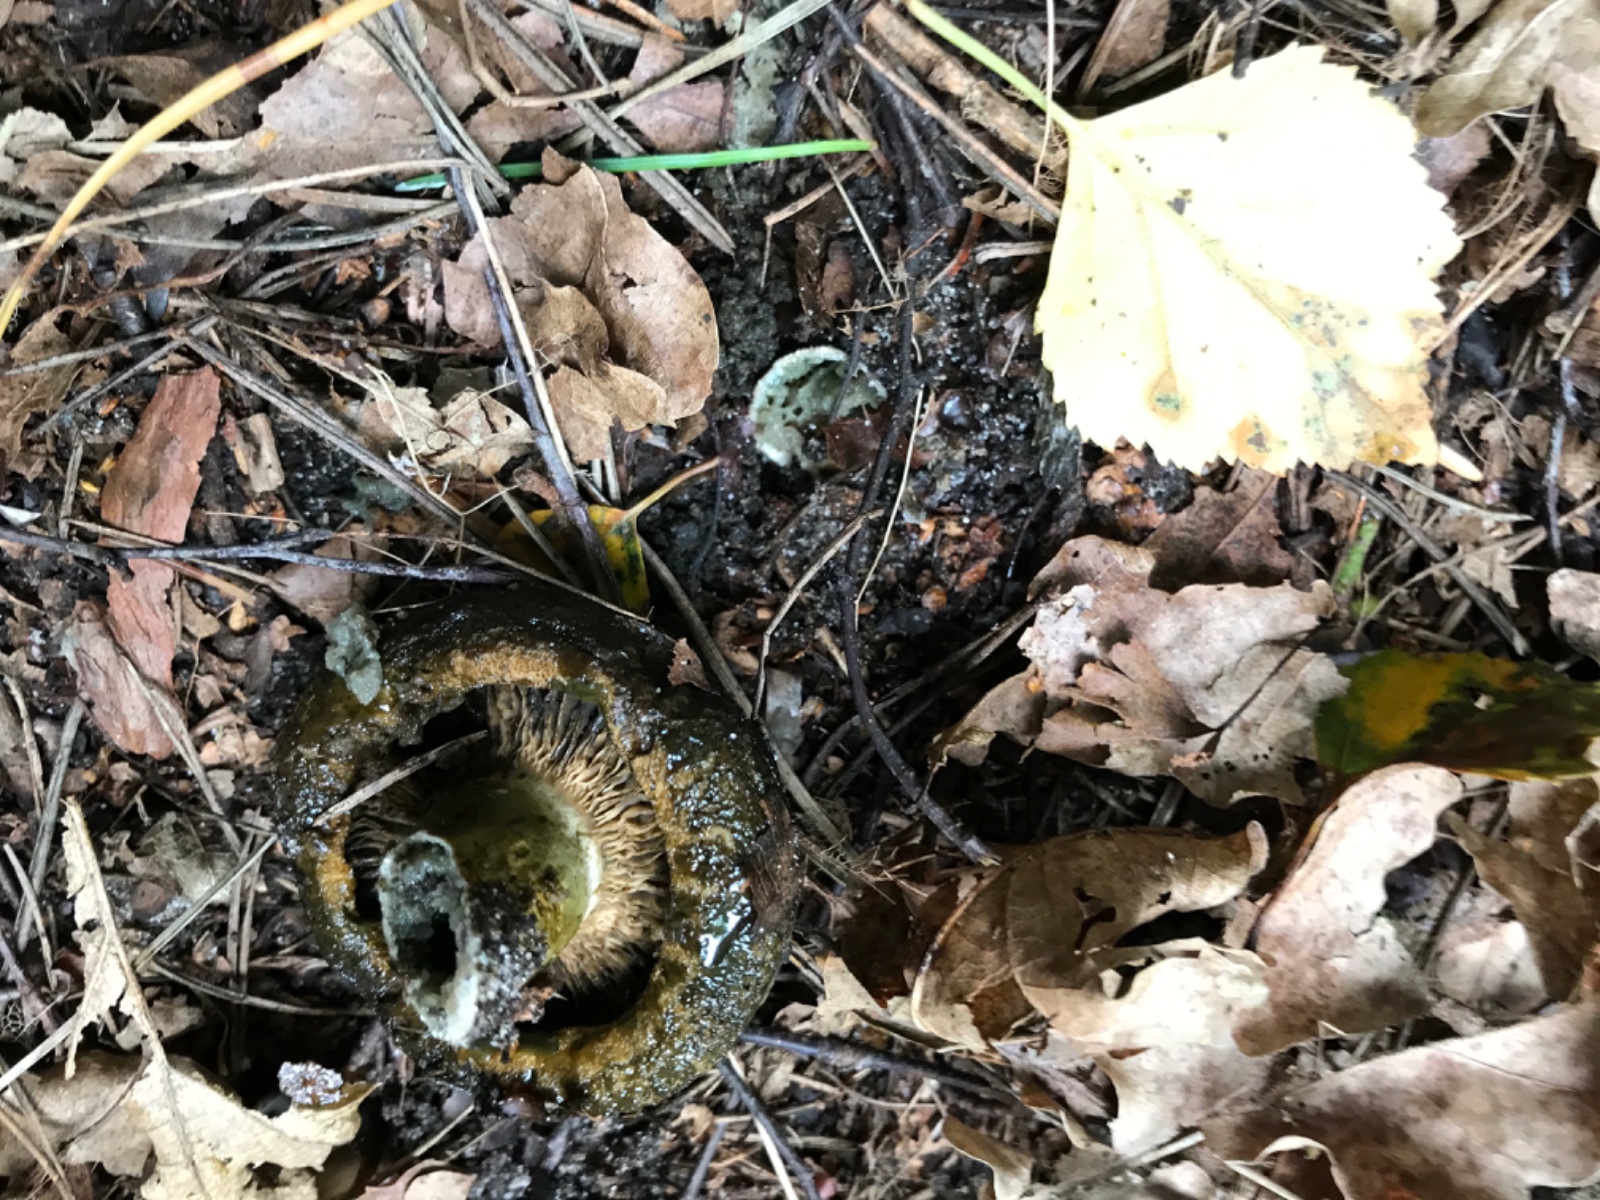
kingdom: Fungi
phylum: Basidiomycota
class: Agaricomycetes
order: Russulales
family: Russulaceae
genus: Lactarius
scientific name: Lactarius necator
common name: manddraber-mælkehat
